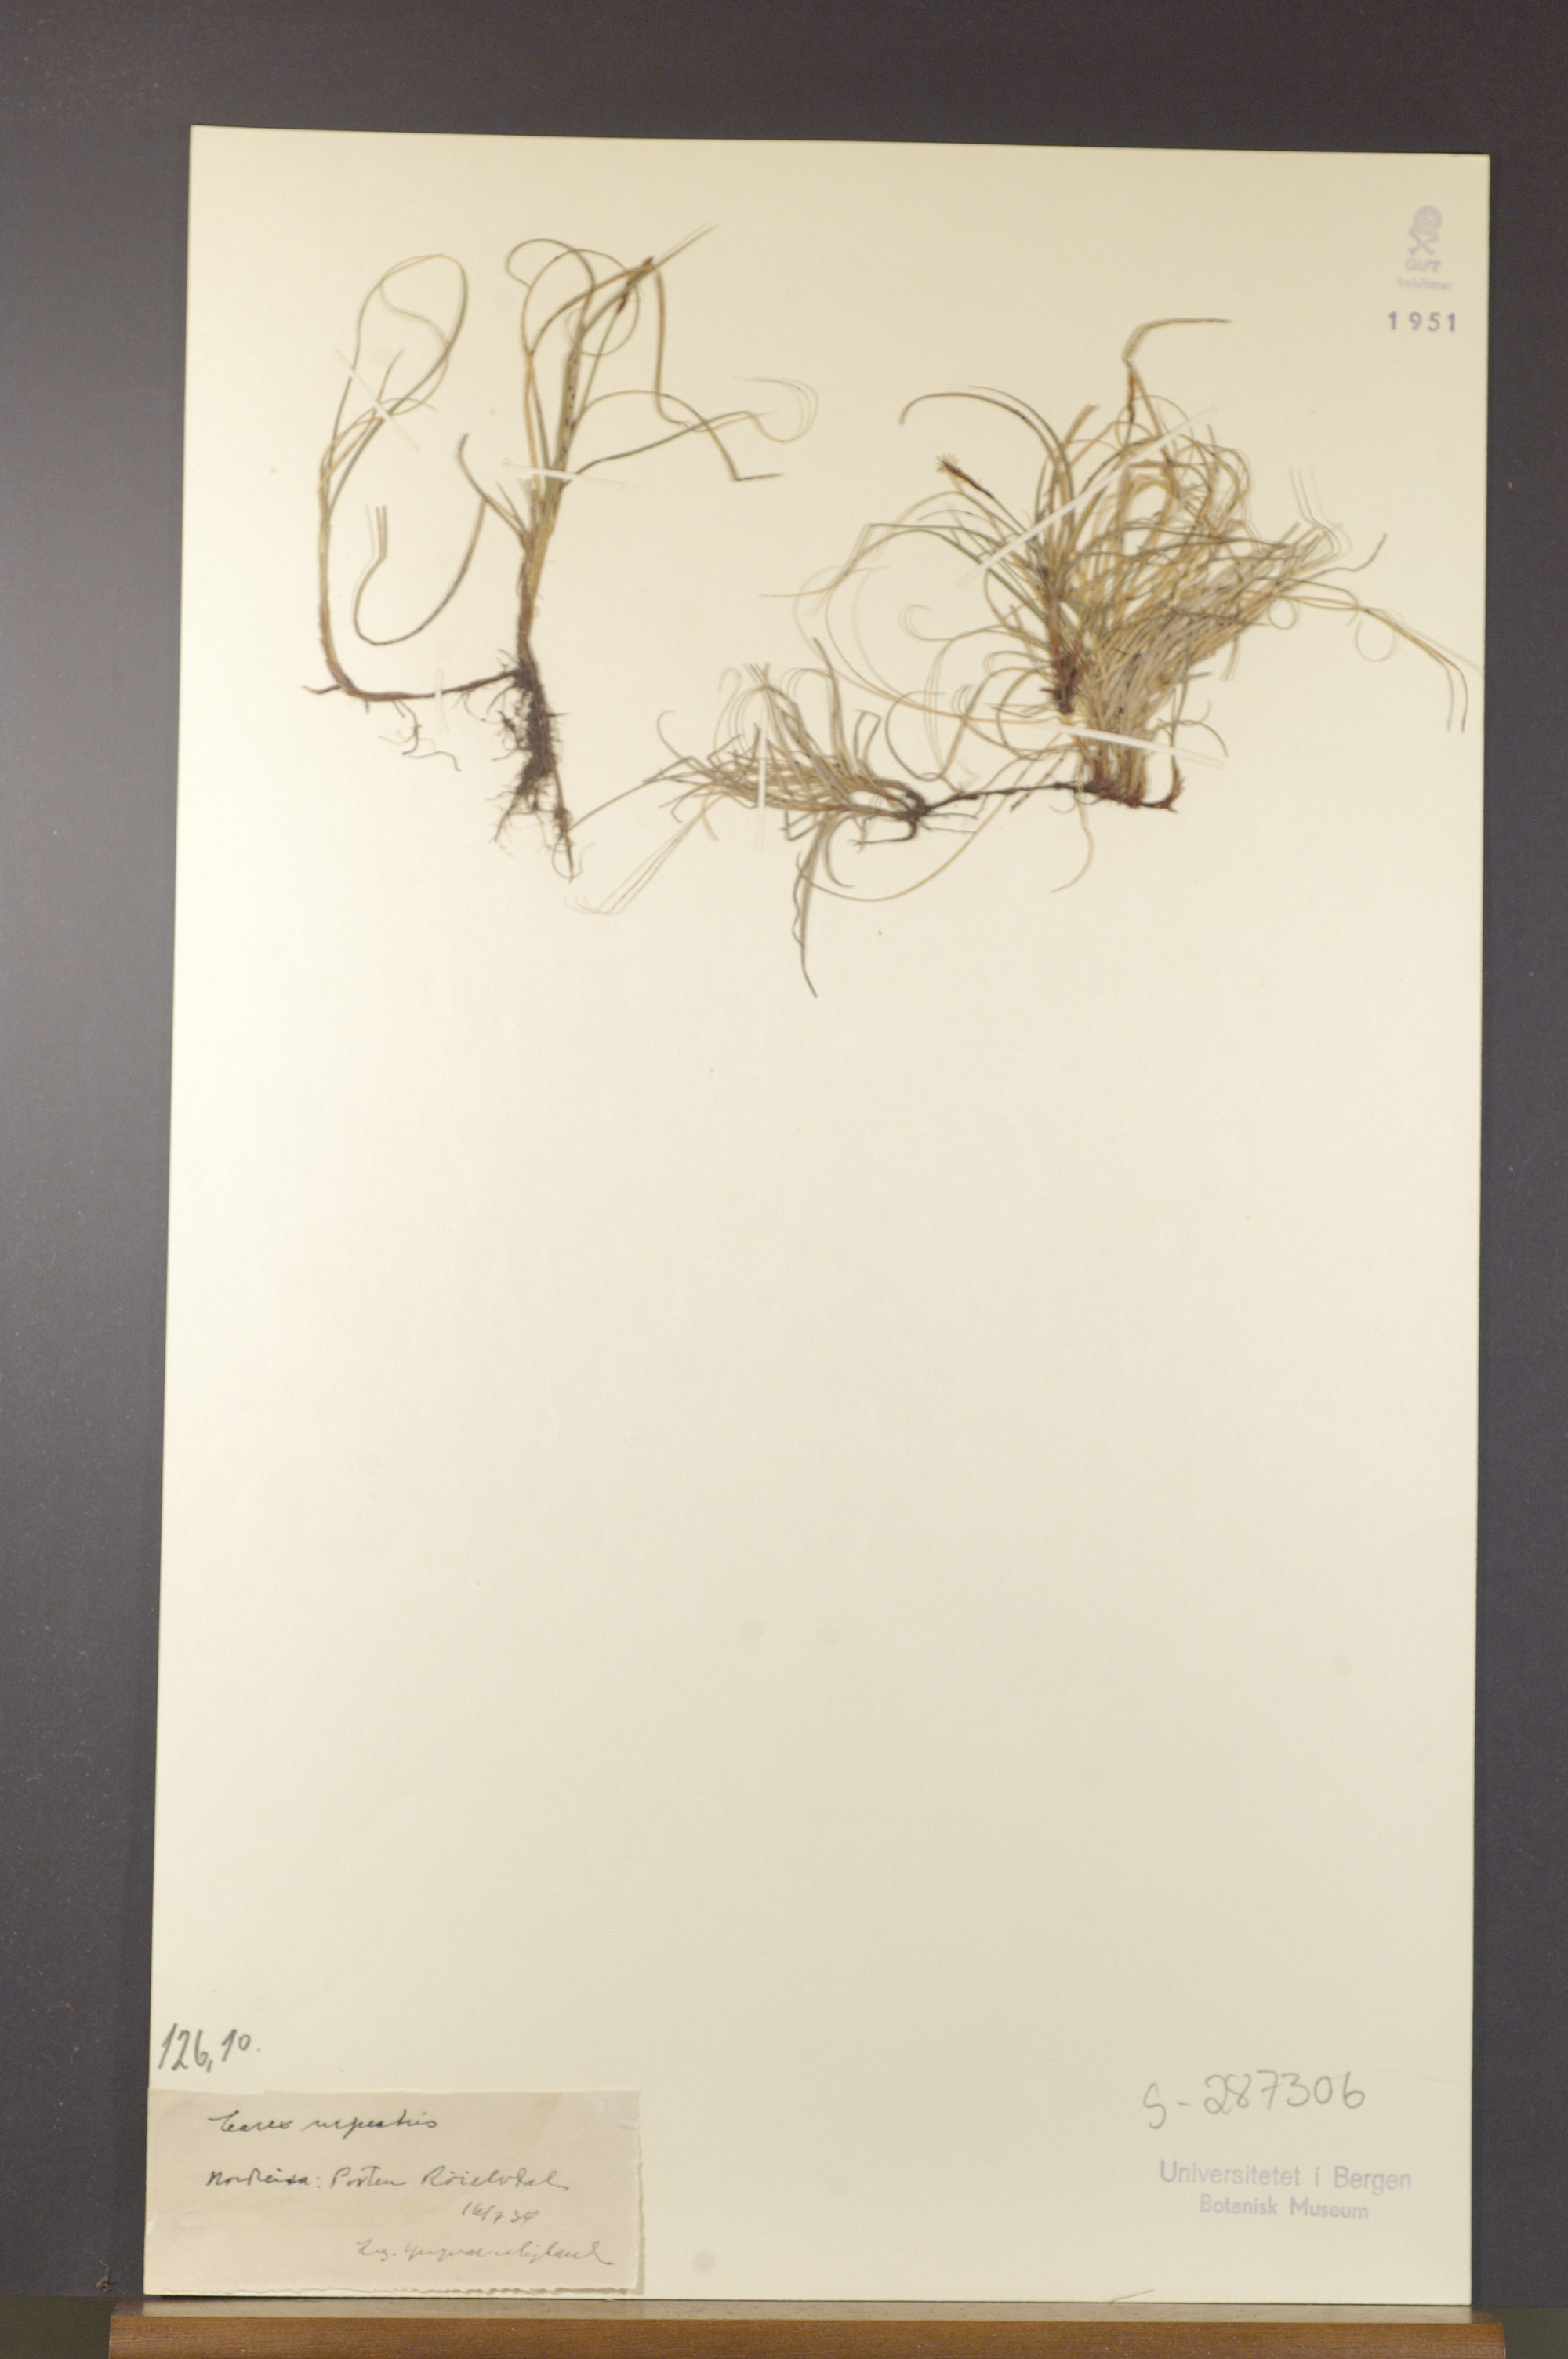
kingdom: Plantae
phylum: Tracheophyta
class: Liliopsida
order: Poales
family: Cyperaceae
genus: Carex
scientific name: Carex rupestris
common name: Rock sedge
